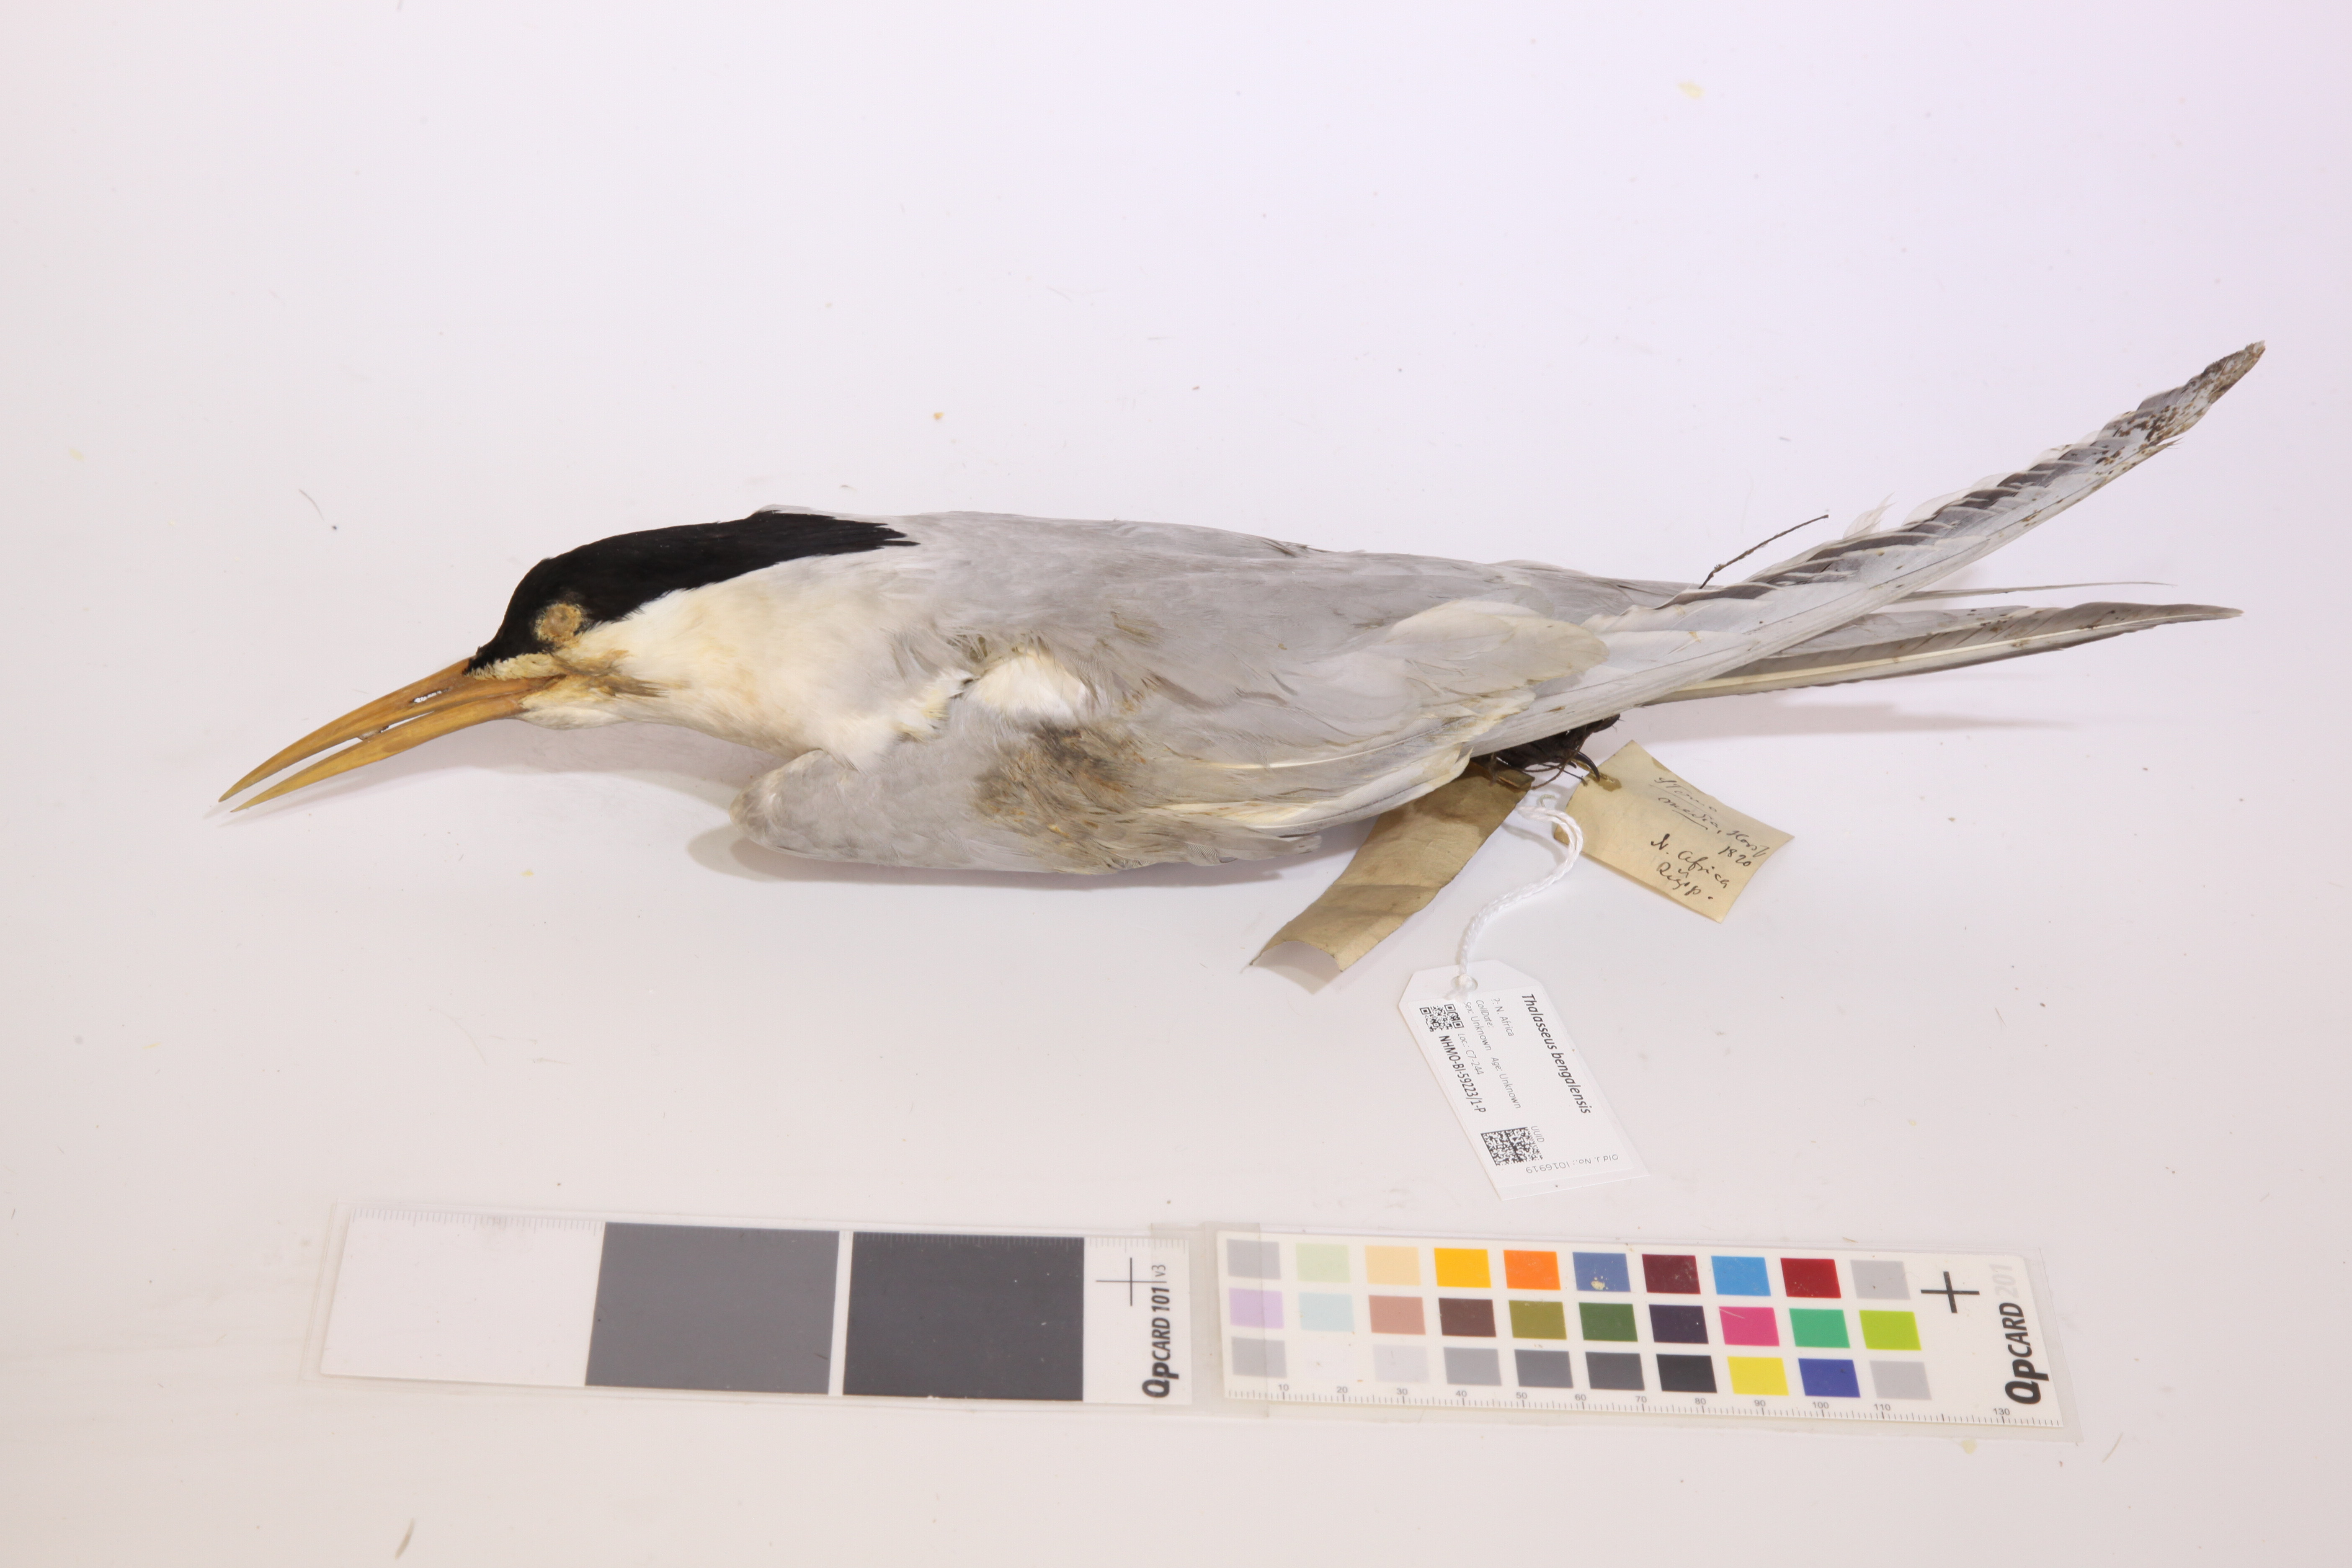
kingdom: Animalia
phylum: Chordata
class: Aves
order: Charadriiformes
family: Laridae
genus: Thalasseus
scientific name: Thalasseus bengalensis
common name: Lesser crested tern
